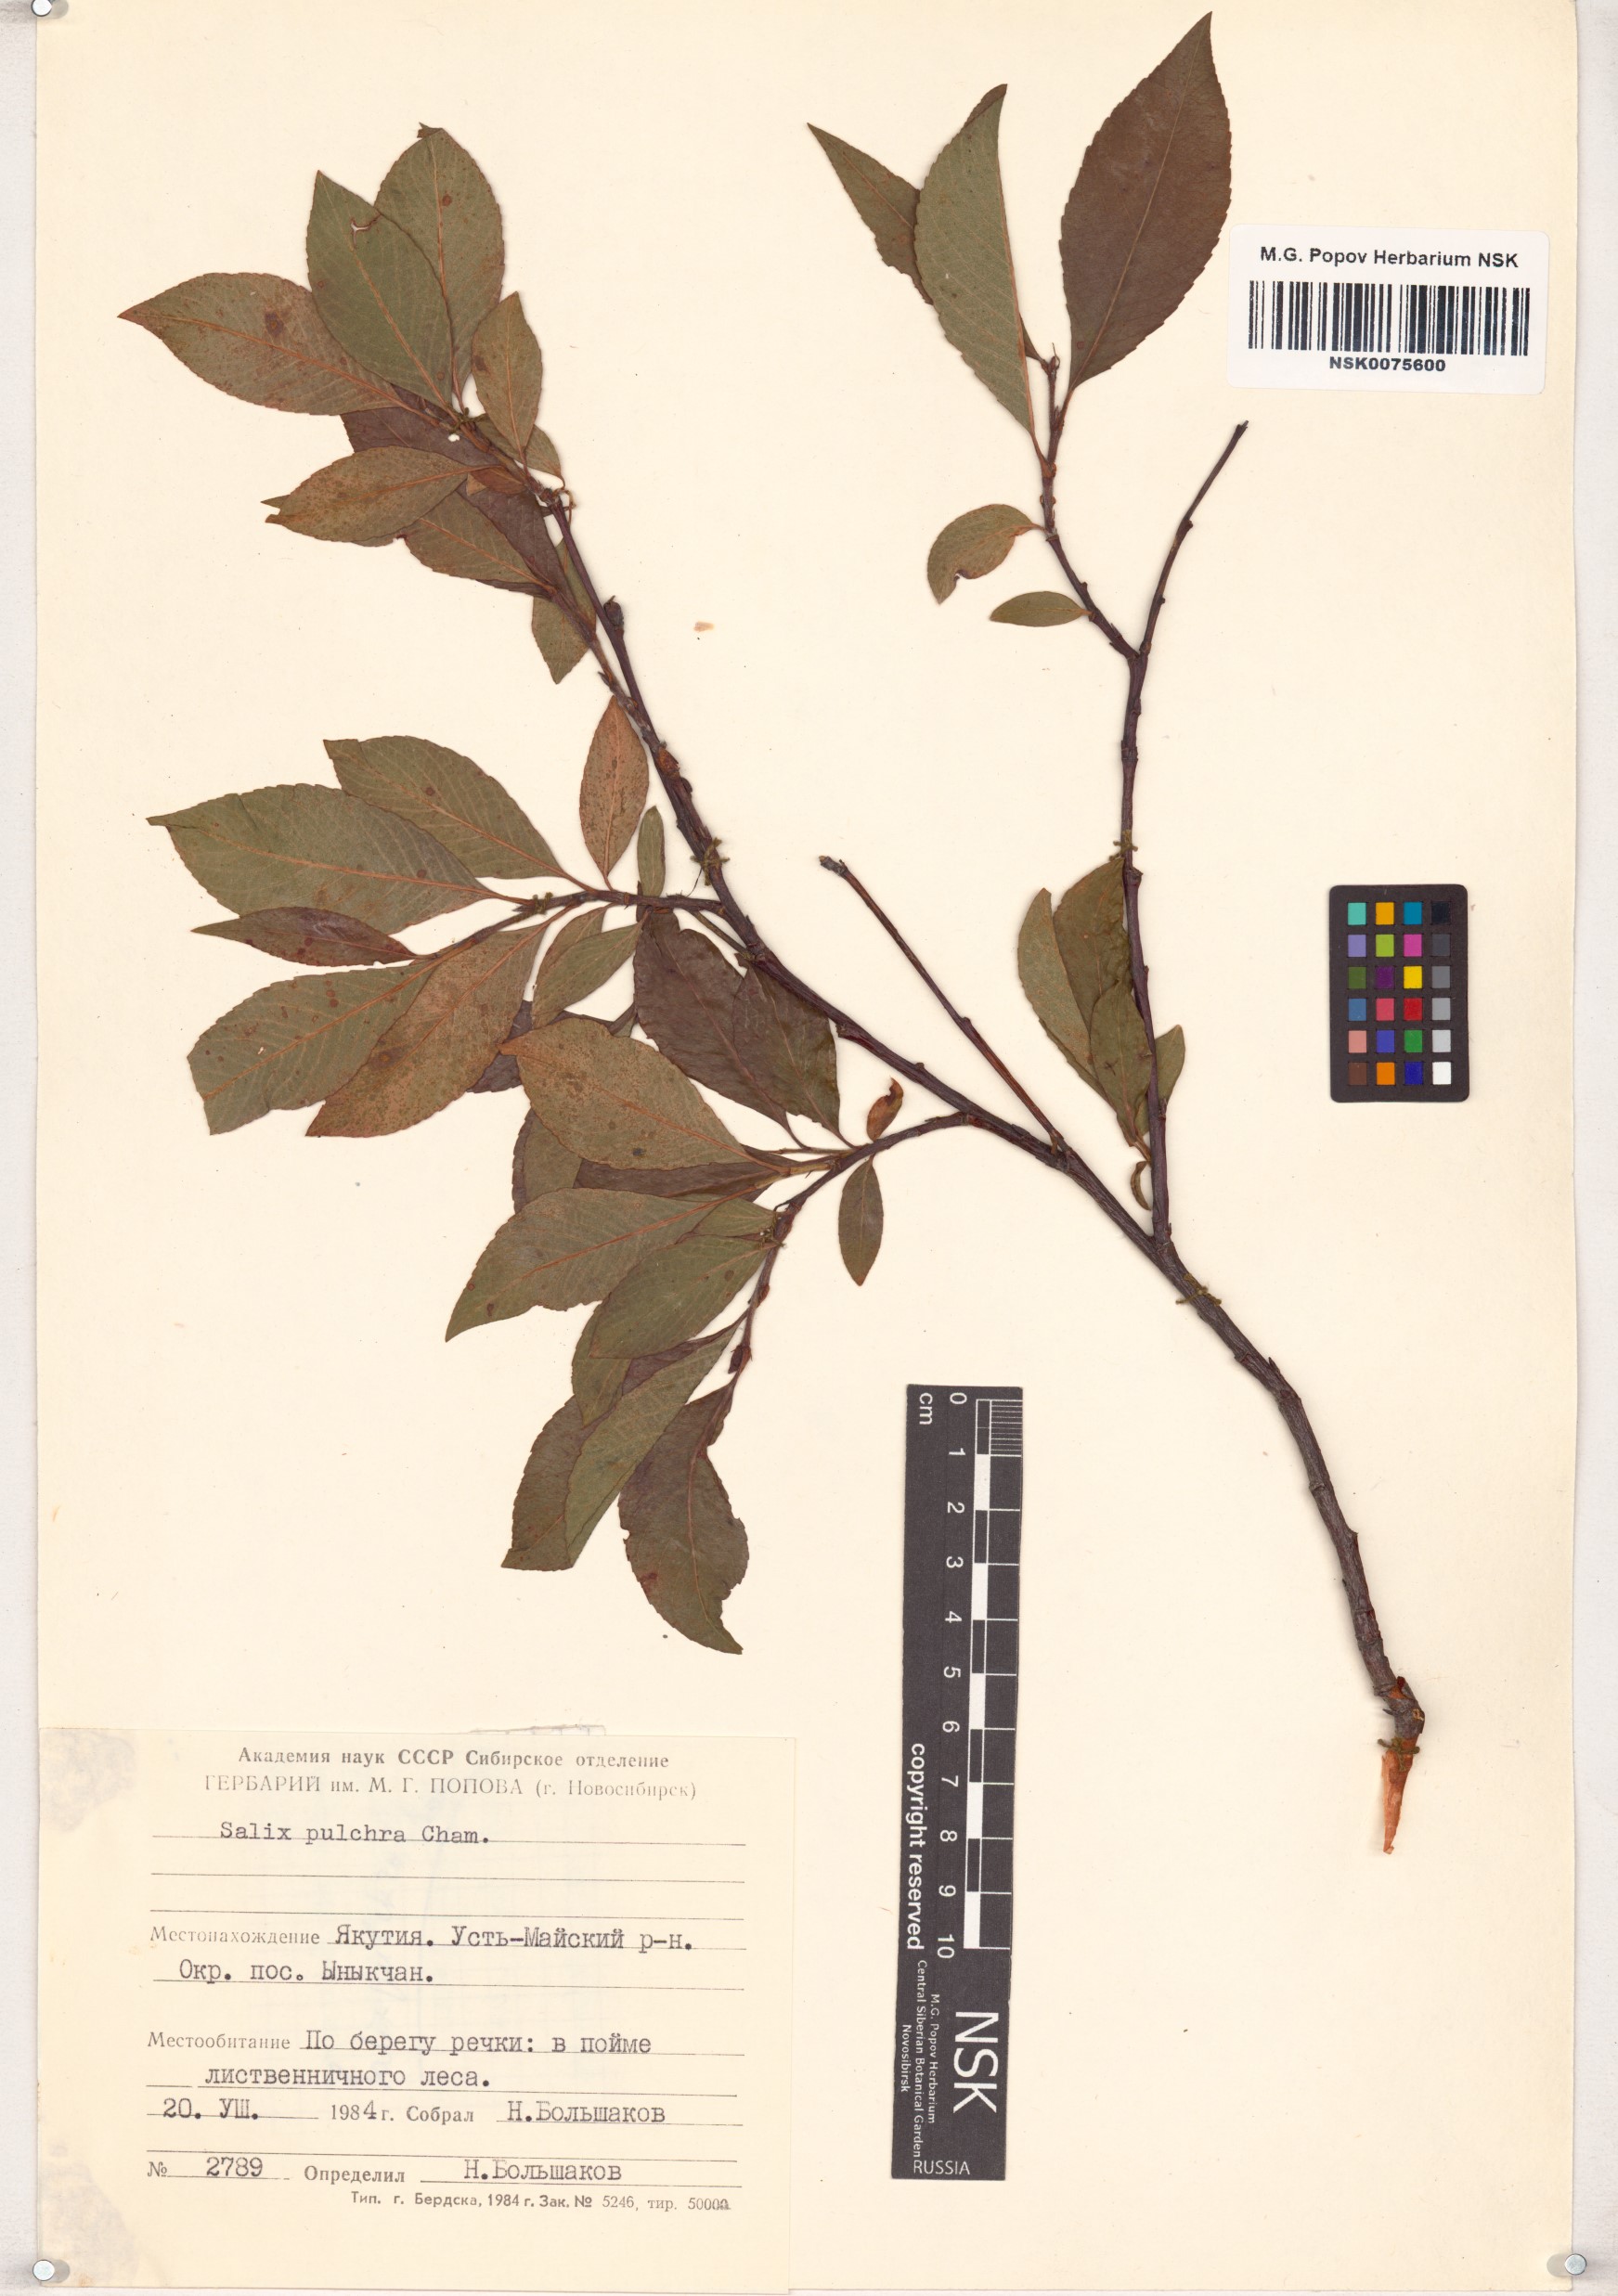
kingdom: Plantae
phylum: Tracheophyta
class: Magnoliopsida
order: Malpighiales
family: Salicaceae
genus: Salix
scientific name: Salix pulchra
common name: Diamond-leaved willow
